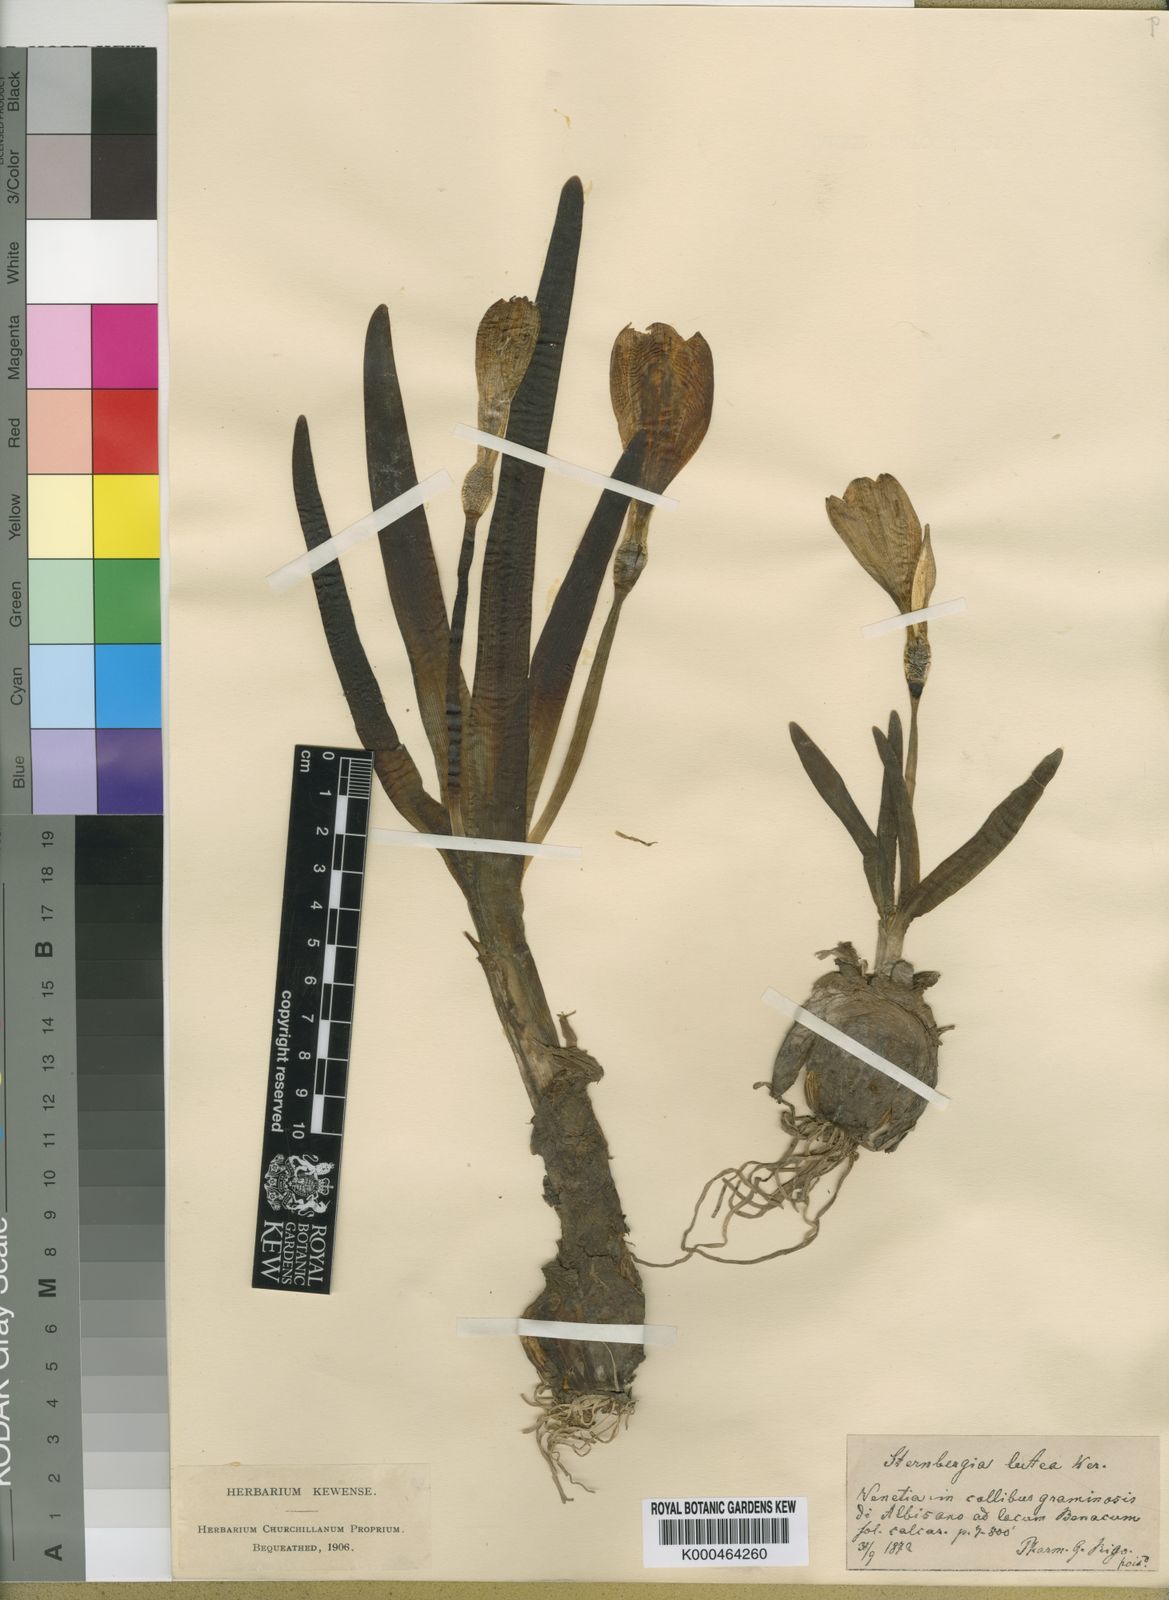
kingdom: Plantae
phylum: Tracheophyta
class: Liliopsida
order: Asparagales
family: Amaryllidaceae
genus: Sternbergia
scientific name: Sternbergia
